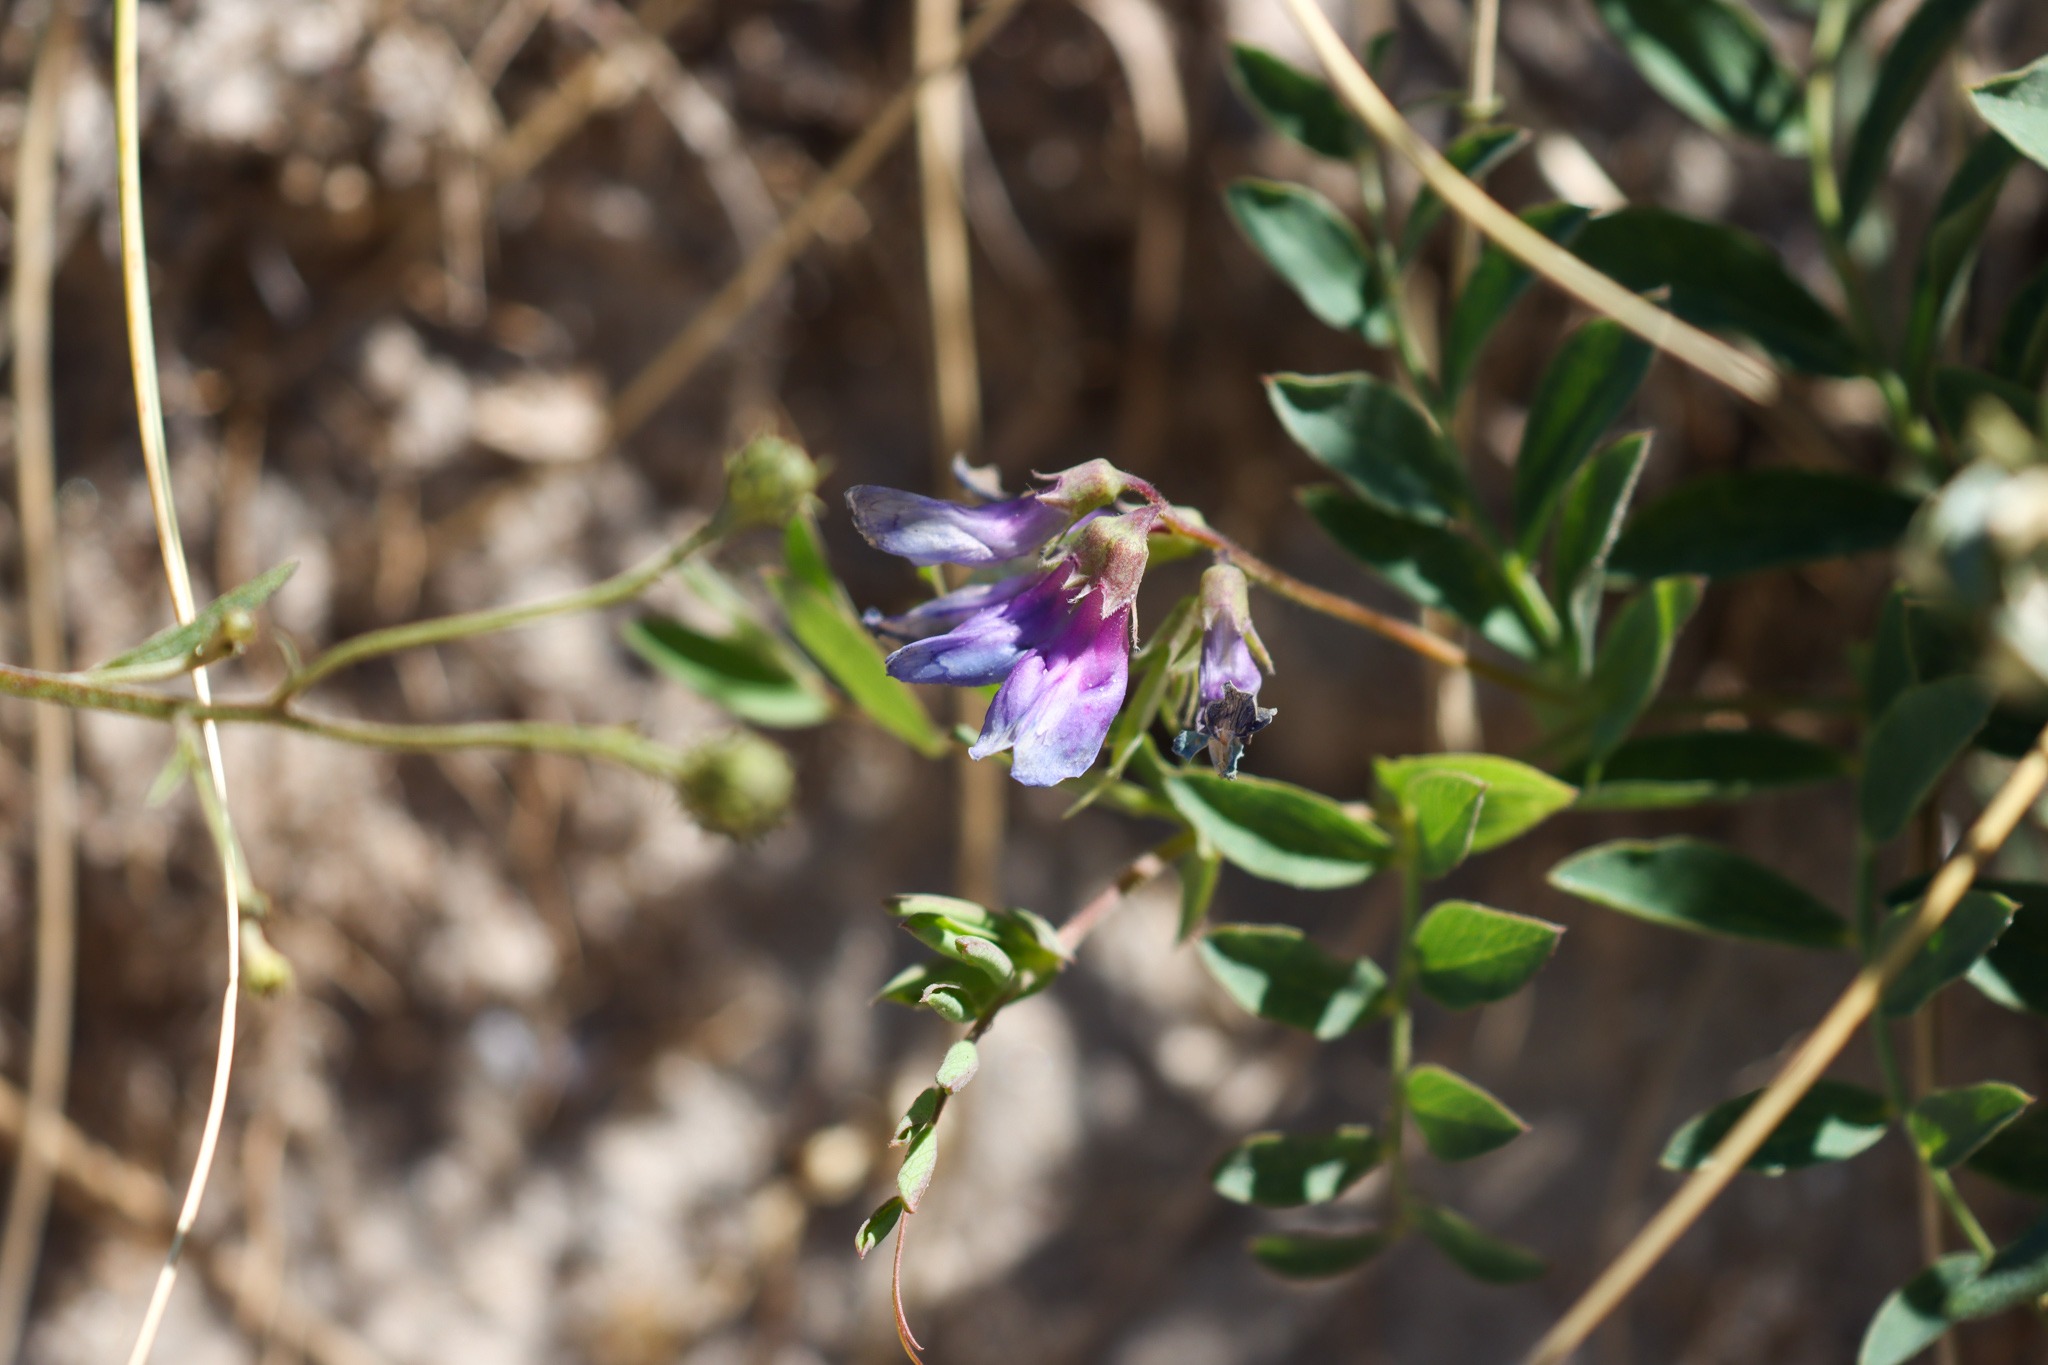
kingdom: Plantae
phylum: Tracheophyta
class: Magnoliopsida
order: Fabales
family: Fabaceae
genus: Lathyrus
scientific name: Lathyrus japonicus
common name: Strand-fladbælg
